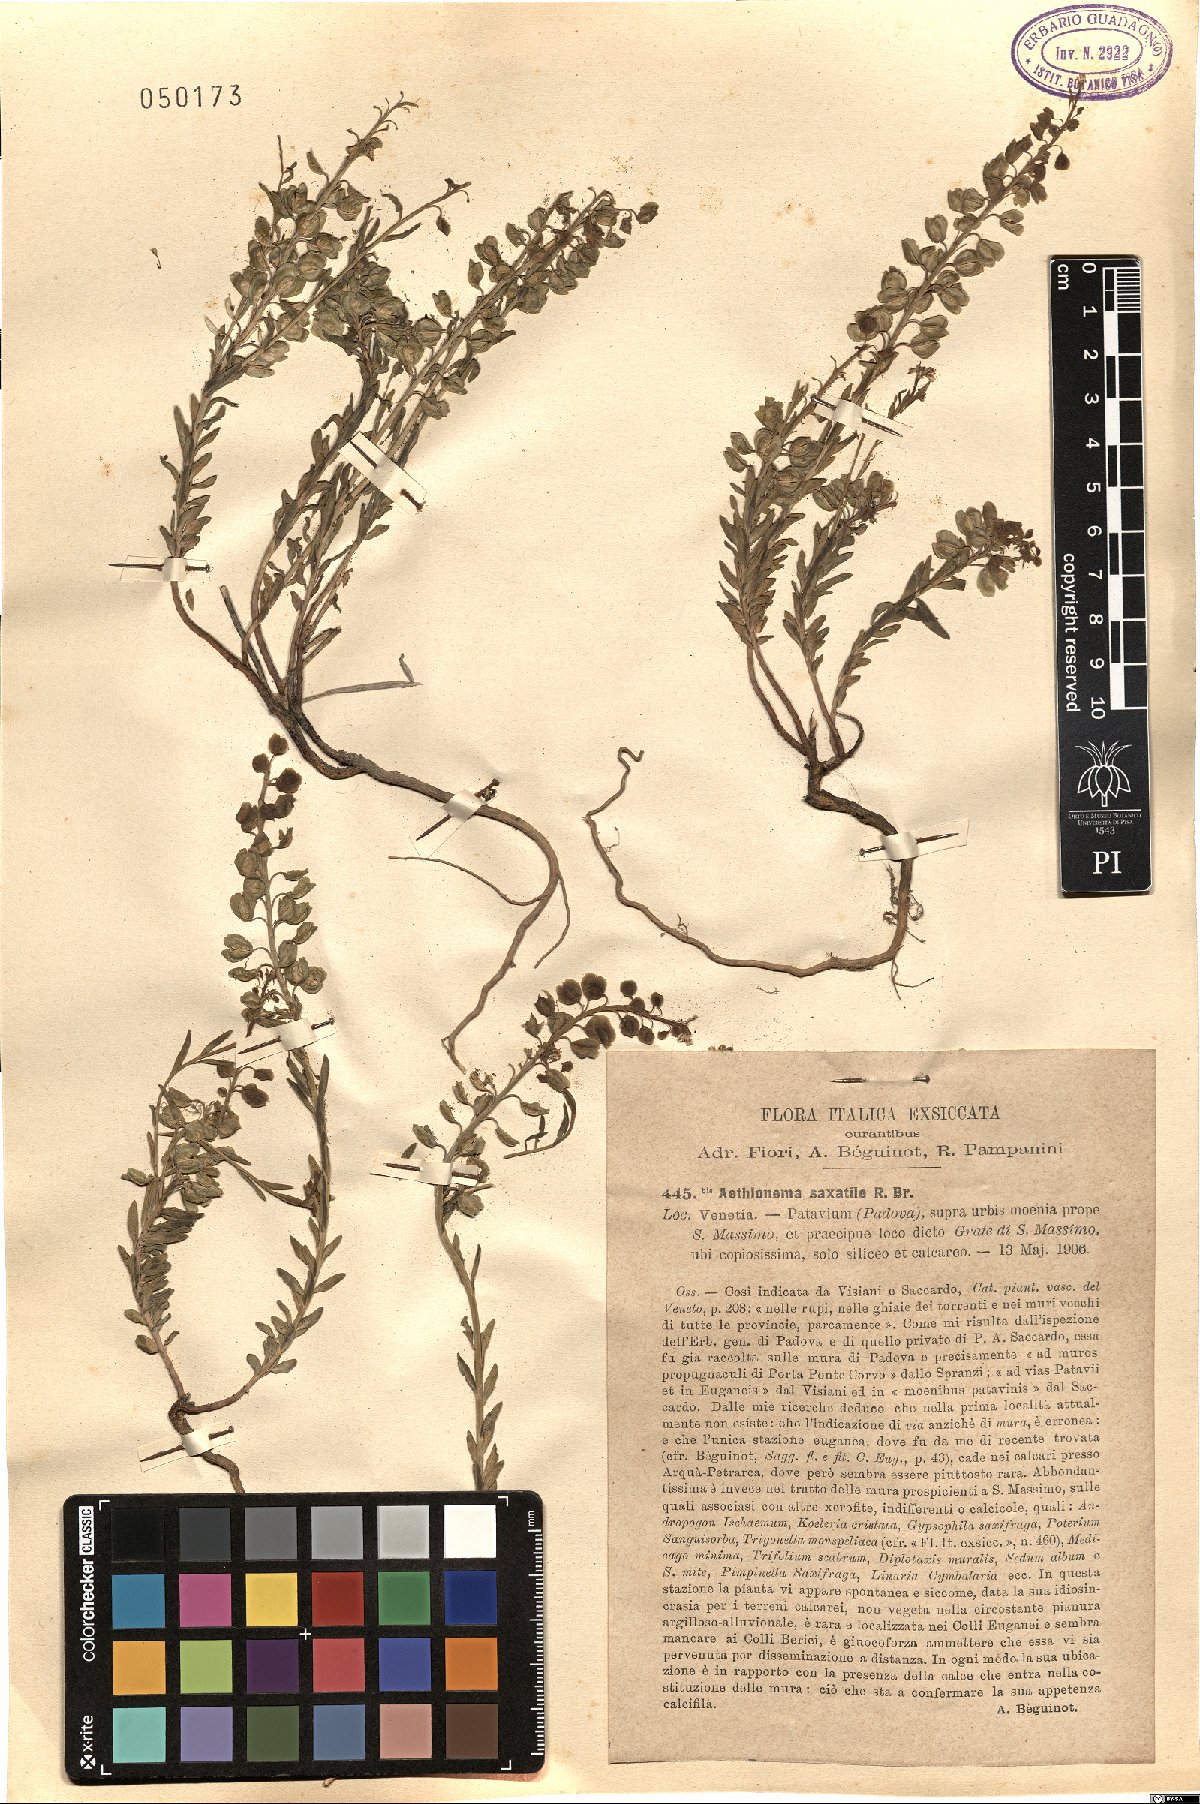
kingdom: Plantae
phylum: Tracheophyta
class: Magnoliopsida
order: Brassicales
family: Brassicaceae
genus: Aethionema
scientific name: Aethionema saxatile
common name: Burnt candytuft
